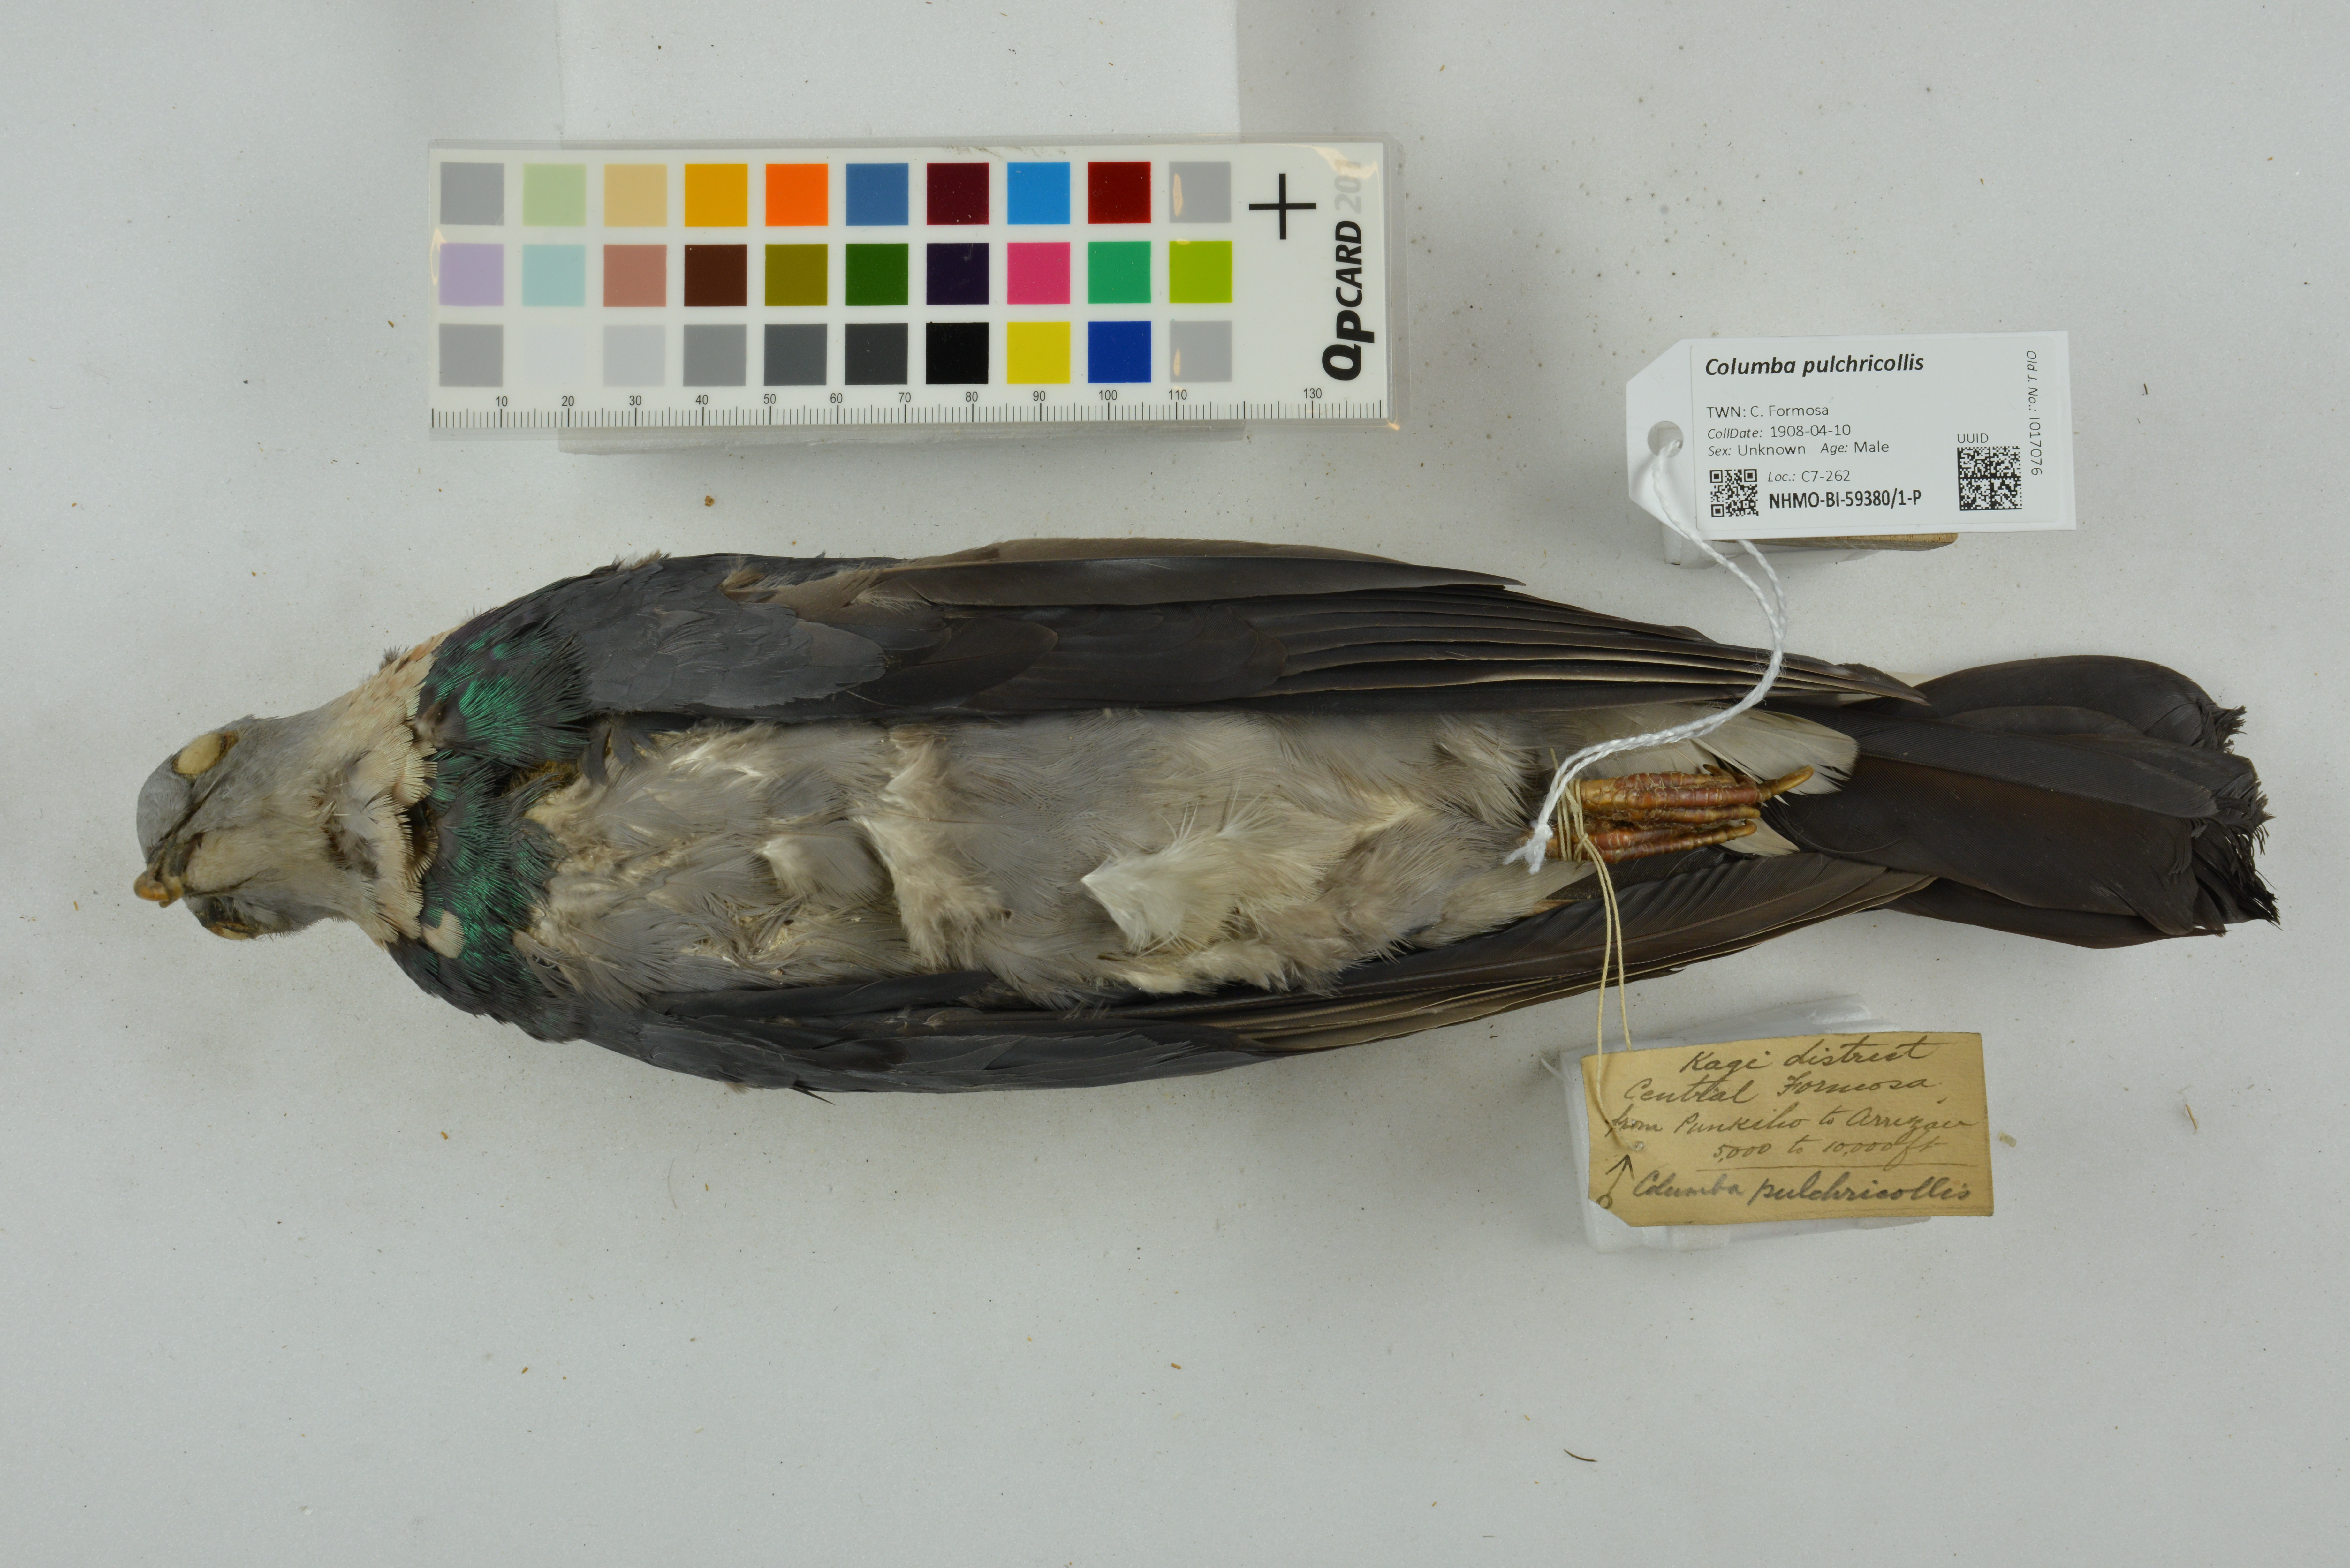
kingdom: Animalia
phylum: Chordata
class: Aves
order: Columbiformes
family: Columbidae
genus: Columba
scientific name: Columba pulchricollis
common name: Ashy wood pigeon
